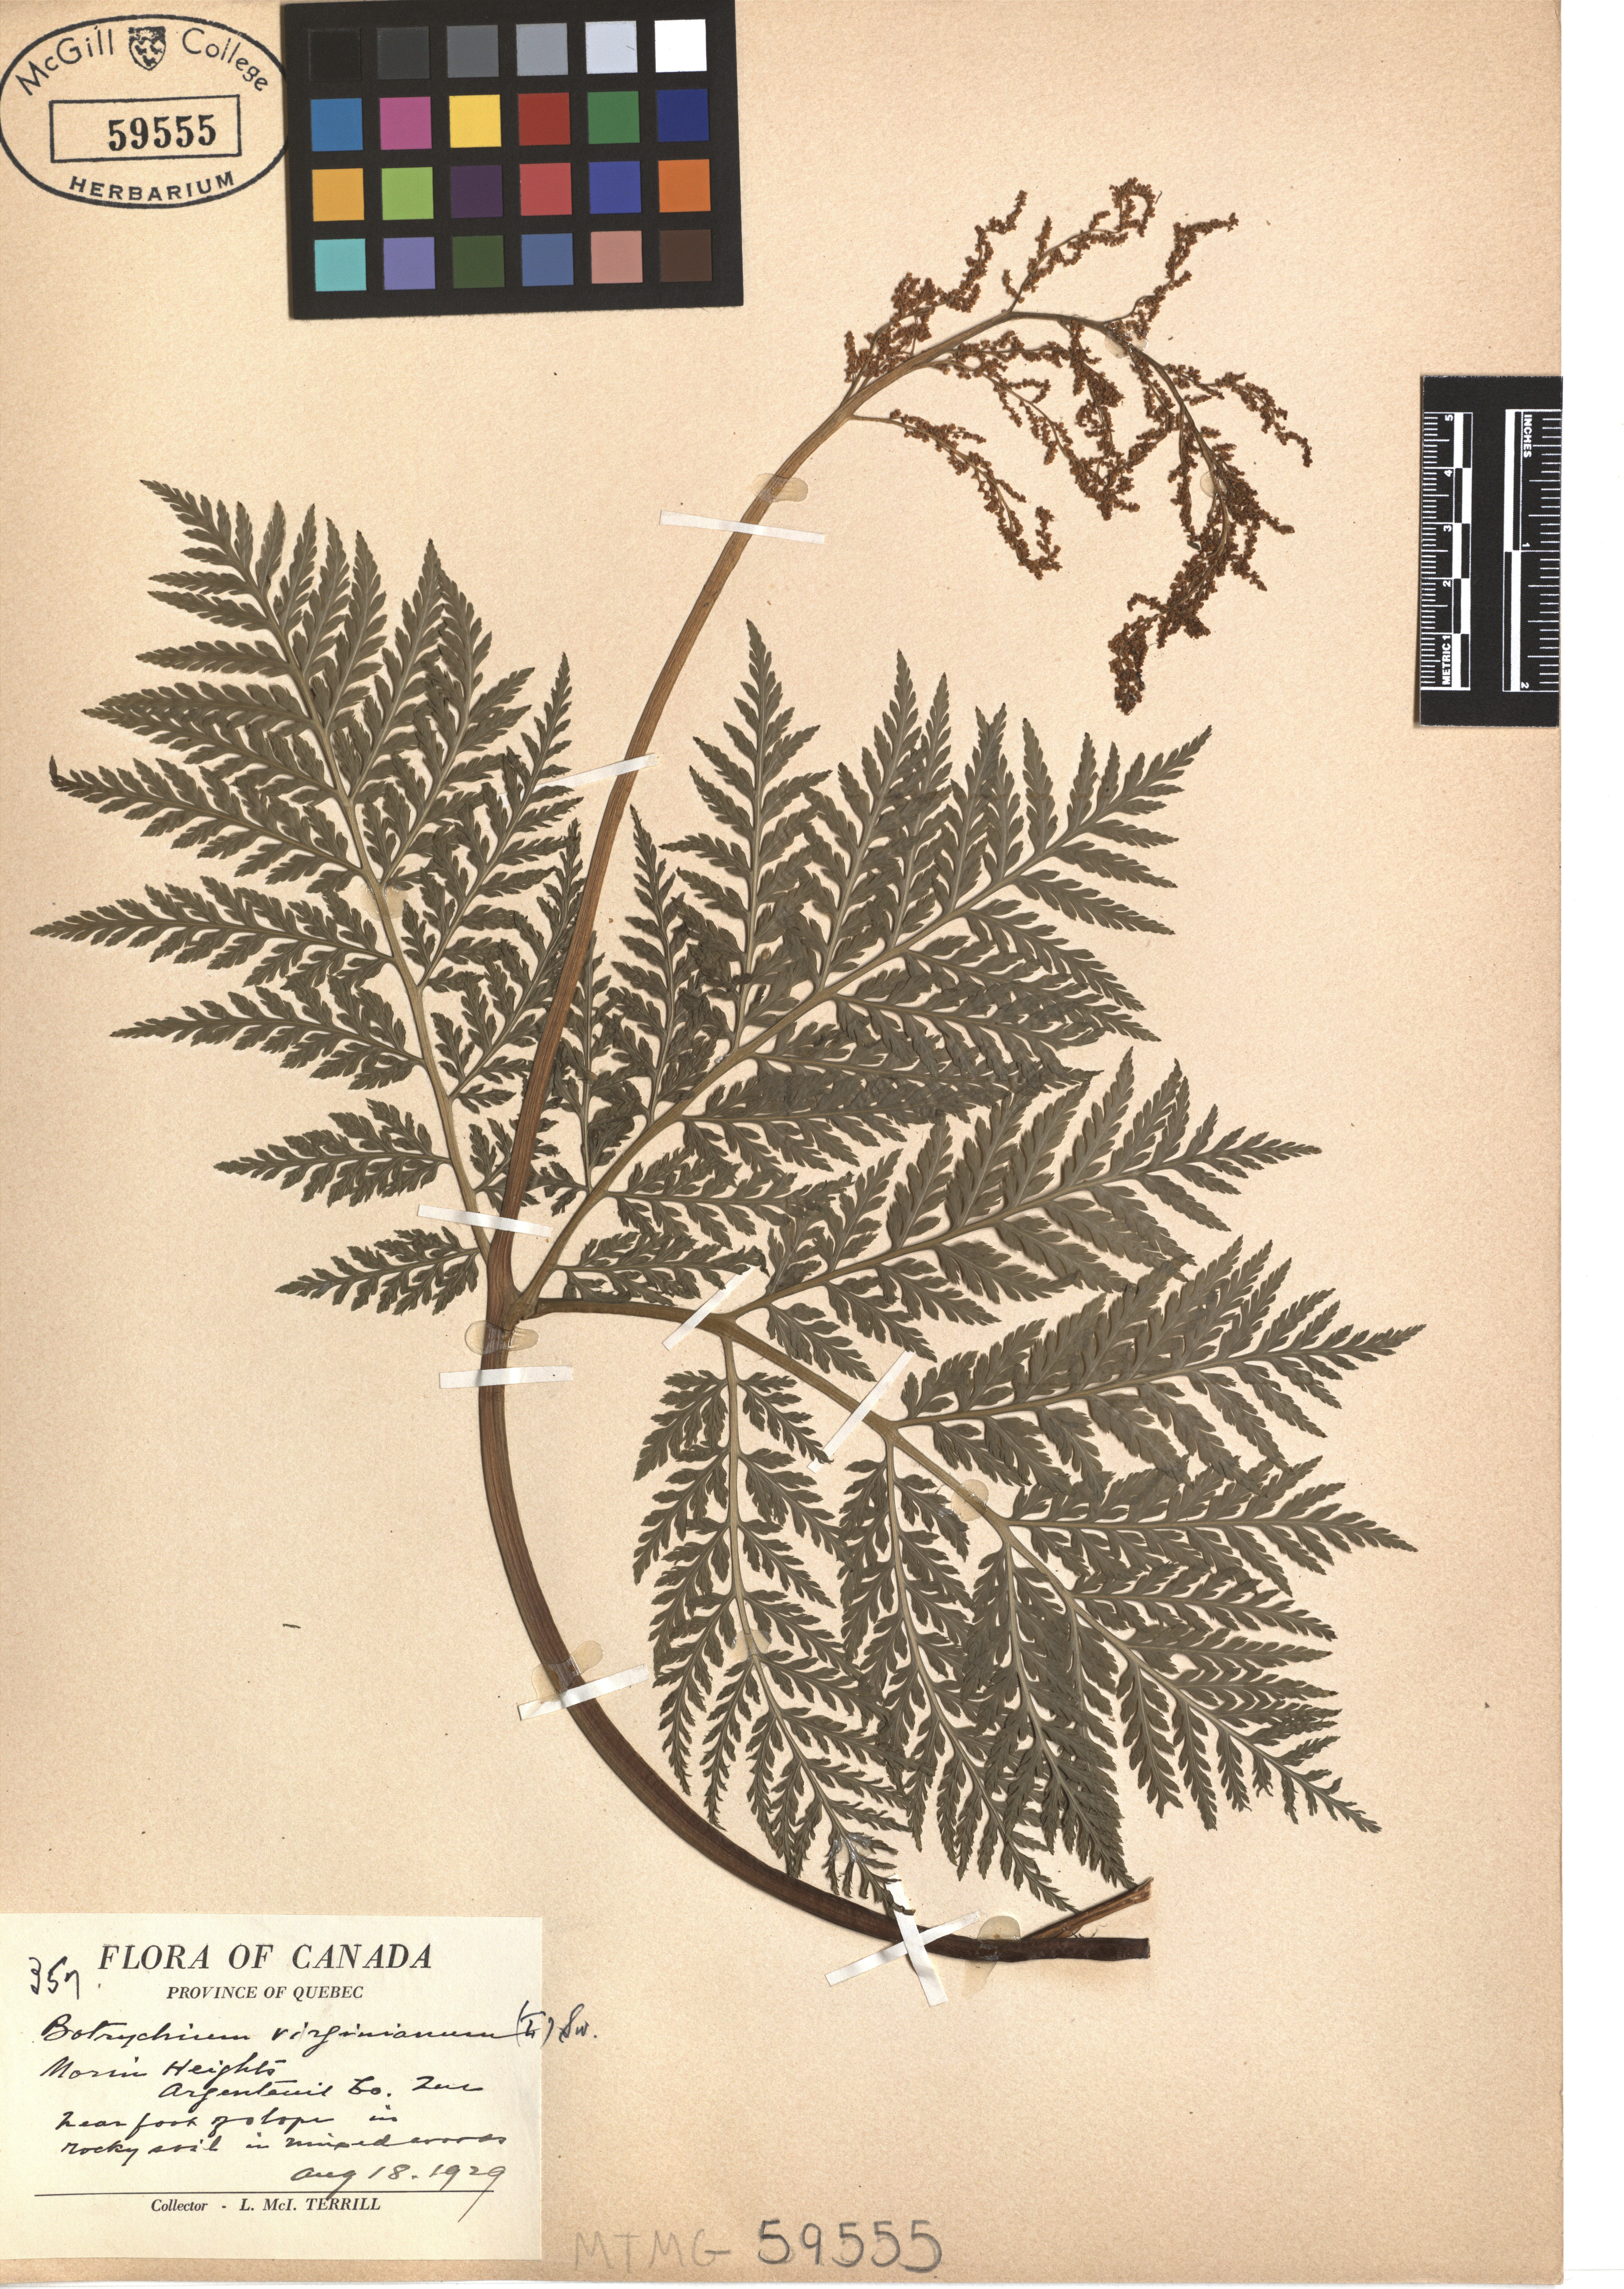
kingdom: Plantae
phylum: Tracheophyta
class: Polypodiopsida
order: Ophioglossales
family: Ophioglossaceae
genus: Botrypus
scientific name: Botrypus virginianus
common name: Common grapefern
